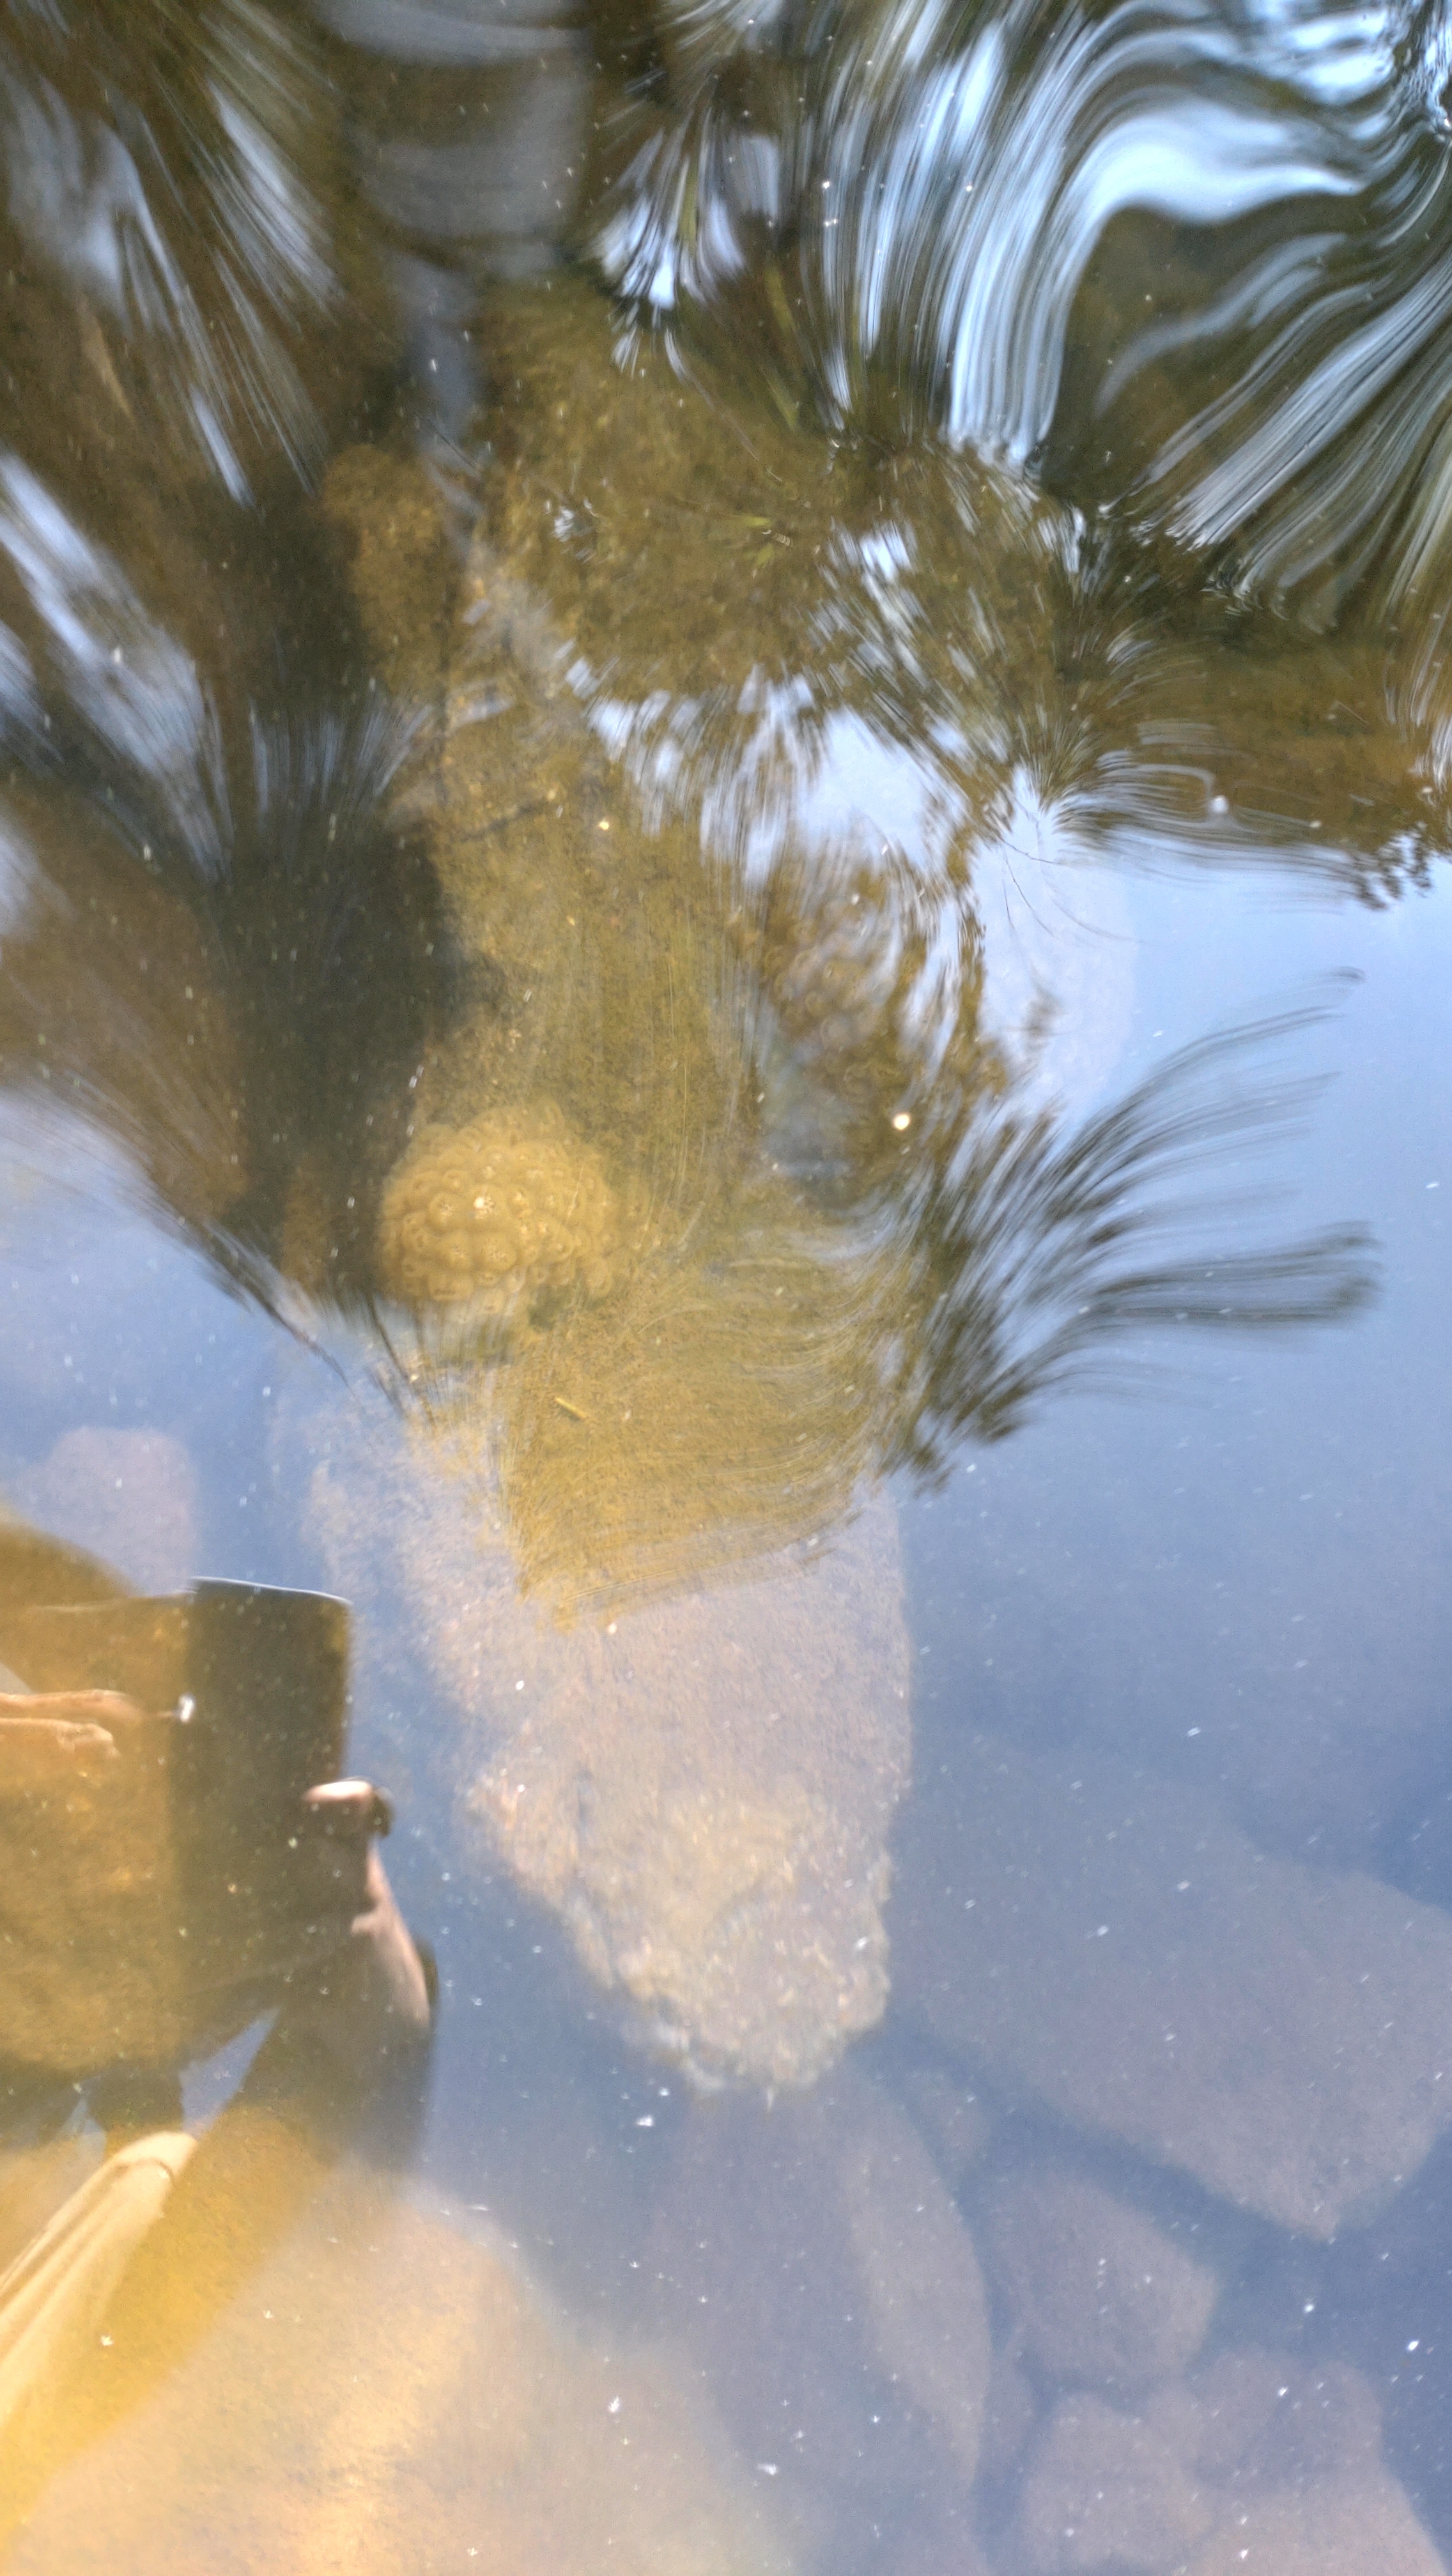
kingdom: Animalia
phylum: Bryozoa
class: Phylactolaemata
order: Plumatellida
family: Pectinatellidae
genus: Pectinatella
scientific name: Pectinatella magnifica
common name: Magnificent bryozoan
